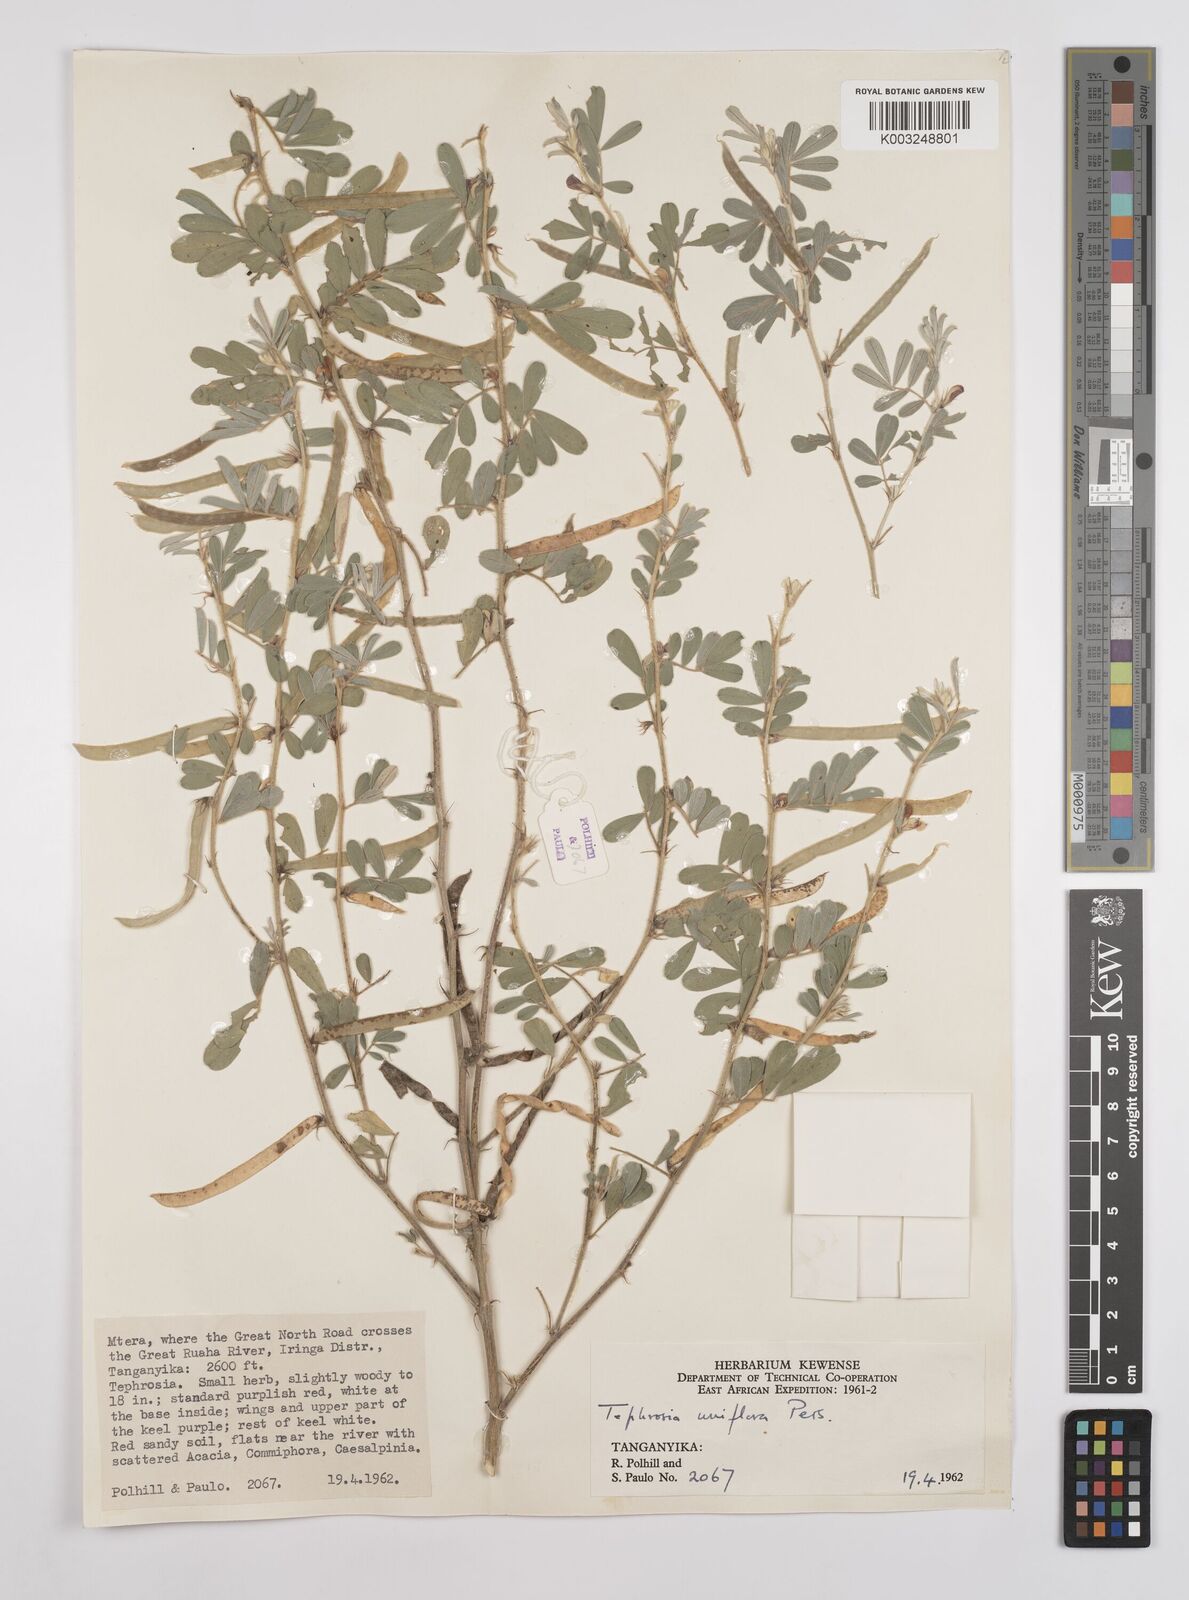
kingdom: Plantae
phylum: Tracheophyta
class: Magnoliopsida
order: Fabales
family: Fabaceae
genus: Tephrosia
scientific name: Tephrosia uniflora
